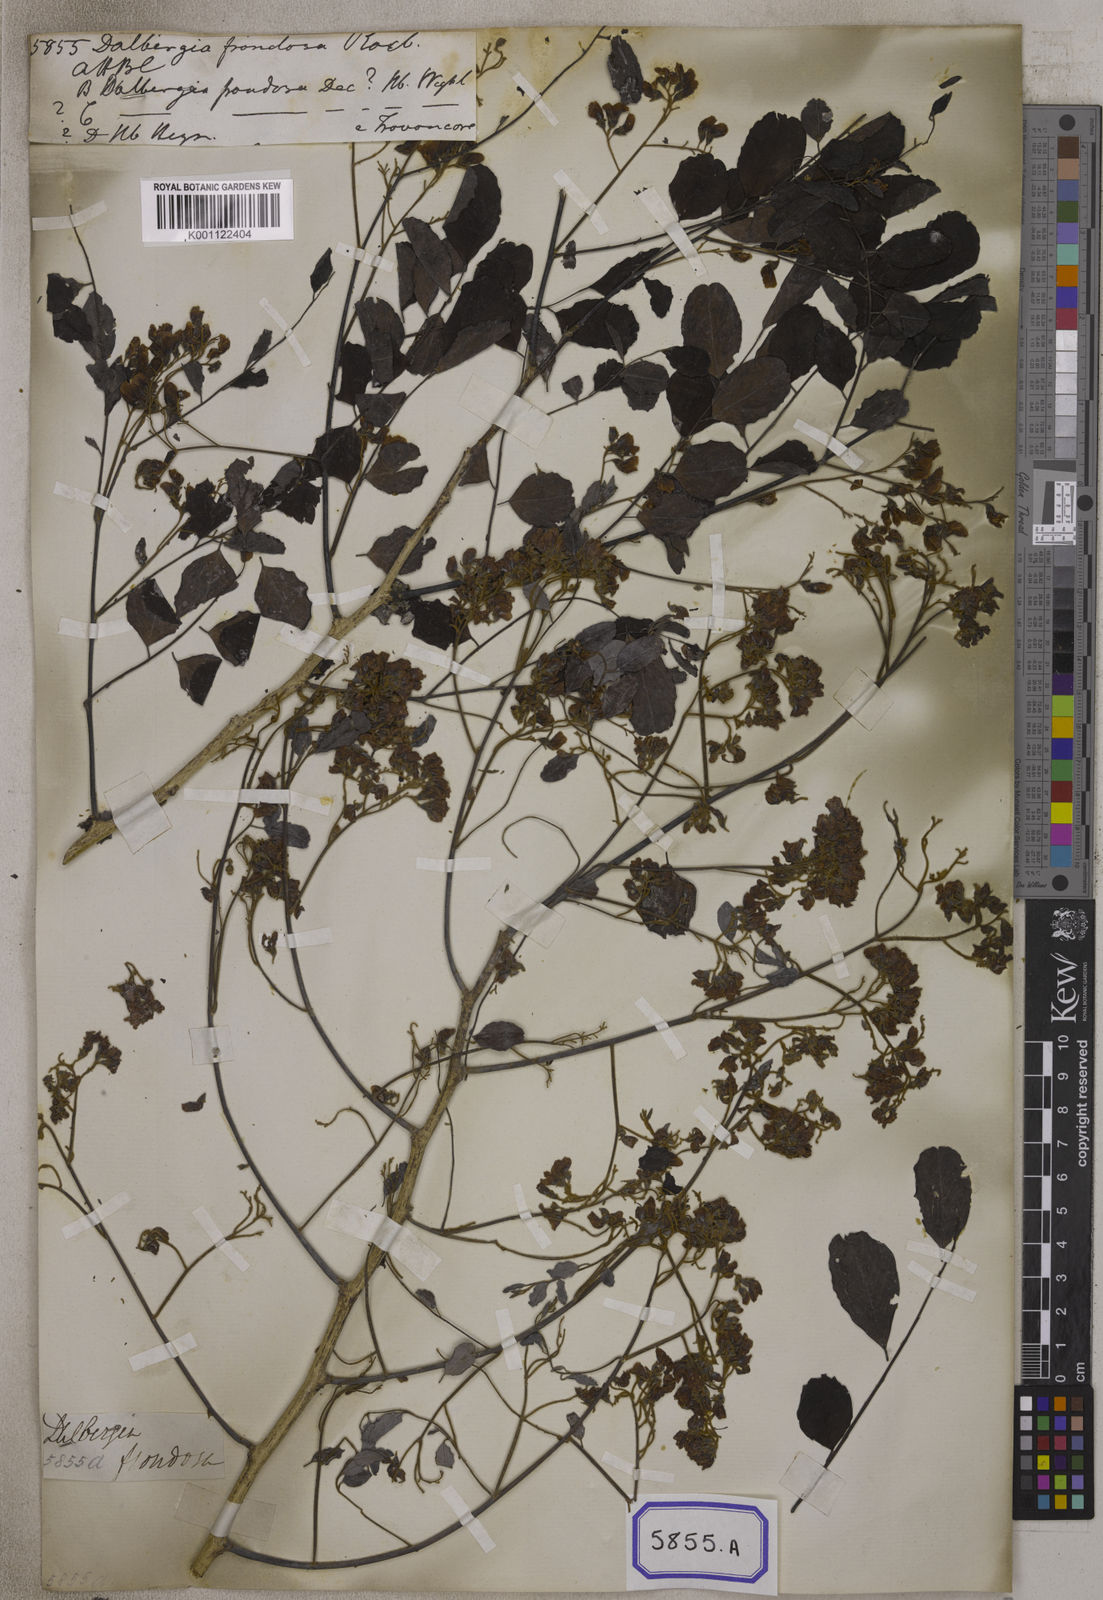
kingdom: Plantae
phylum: Tracheophyta
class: Magnoliopsida
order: Fabales
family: Fabaceae
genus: Dalbergia
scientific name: Dalbergia
